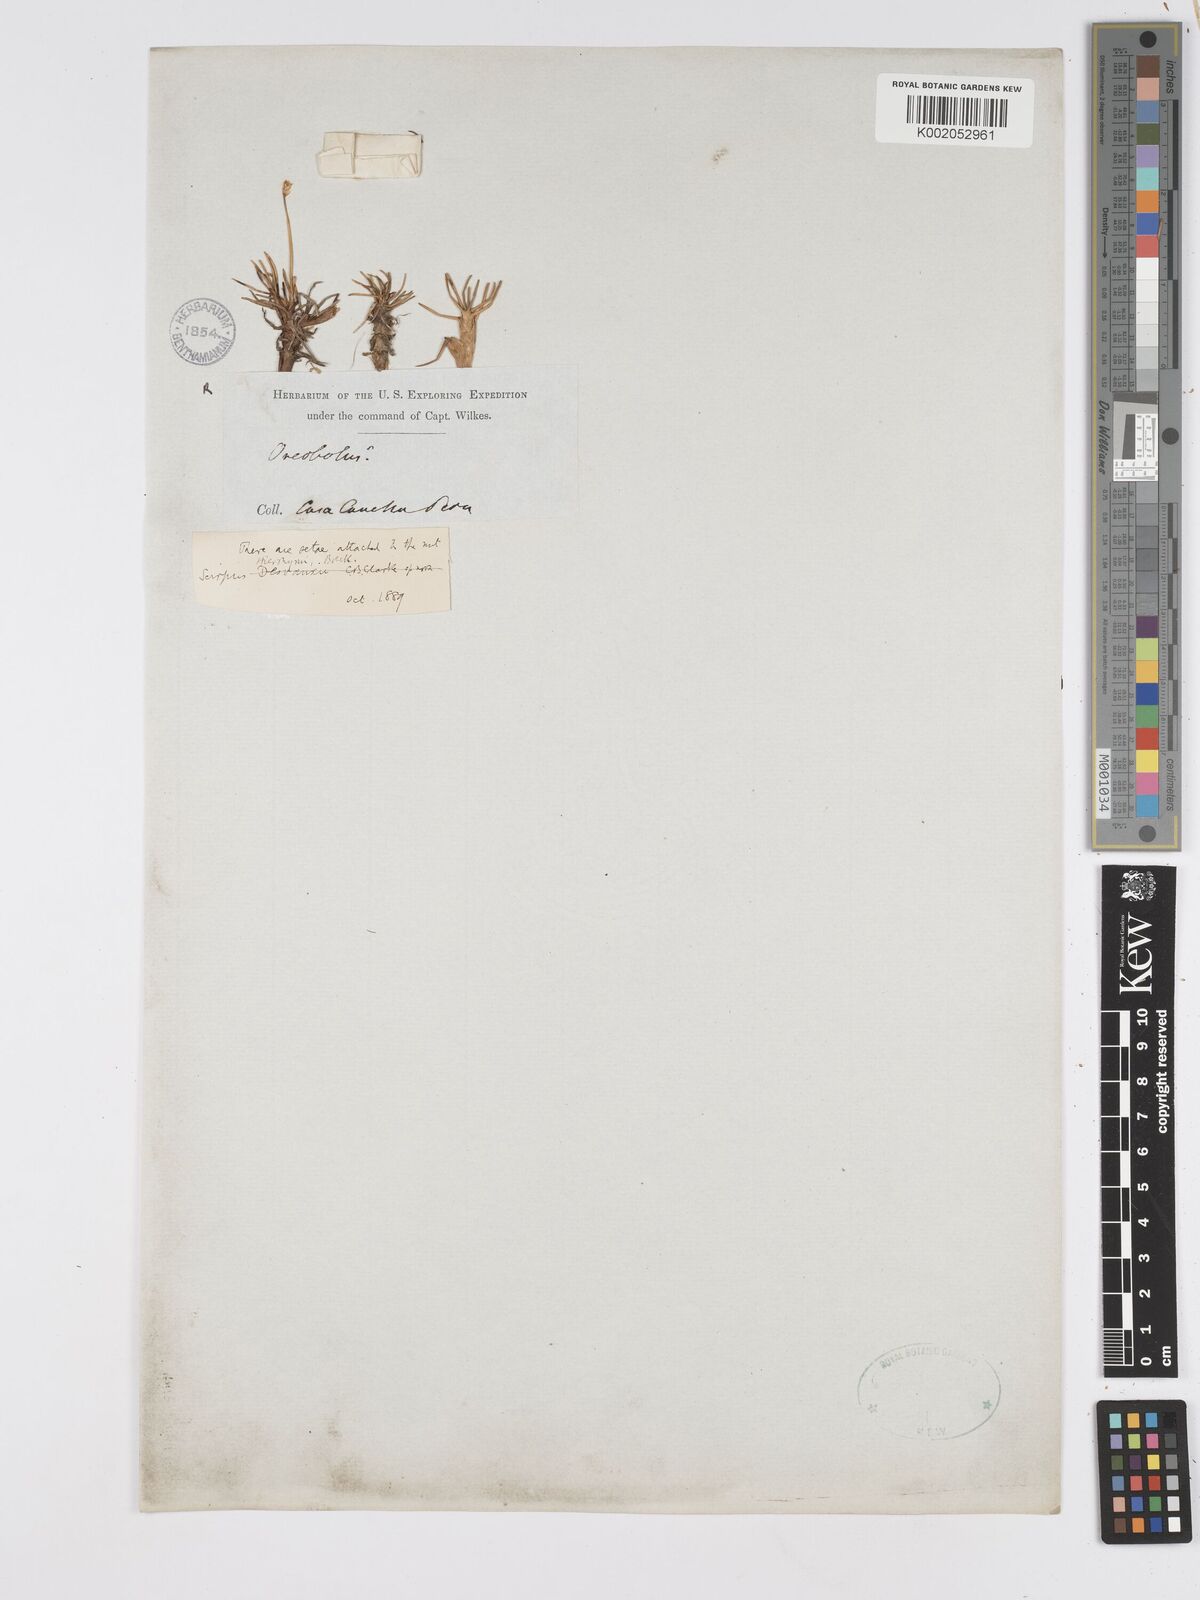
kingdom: Plantae
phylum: Tracheophyta
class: Liliopsida
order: Poales
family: Cyperaceae
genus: Scirpus
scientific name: Scirpus
